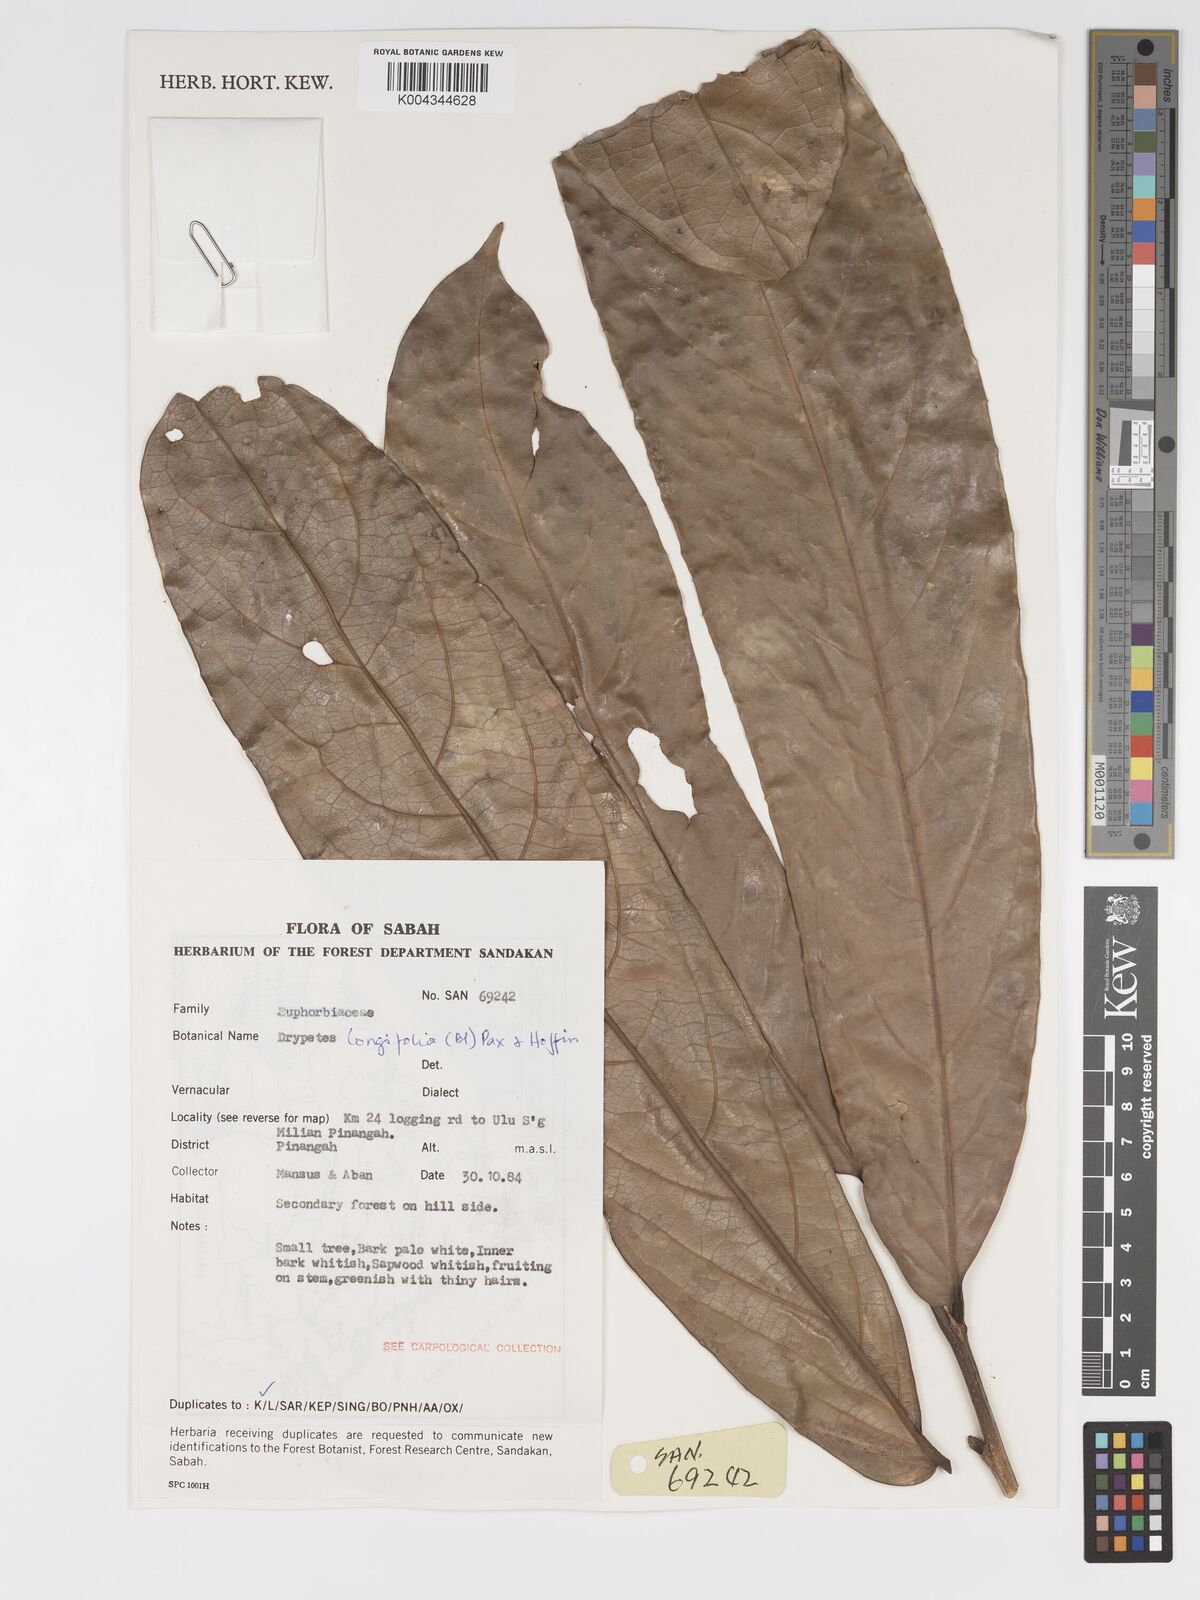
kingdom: Plantae
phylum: Tracheophyta
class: Magnoliopsida
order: Malpighiales
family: Putranjivaceae
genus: Drypetes
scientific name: Drypetes longifolia
